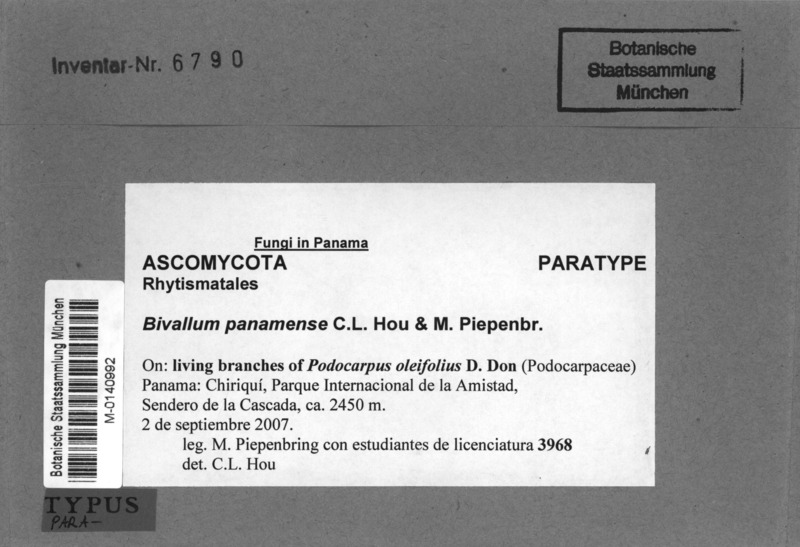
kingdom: Fungi
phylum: Ascomycota
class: Leotiomycetes
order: Rhytismatales
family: Rhytismataceae
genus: Bivallum
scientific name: Bivallum panamense
